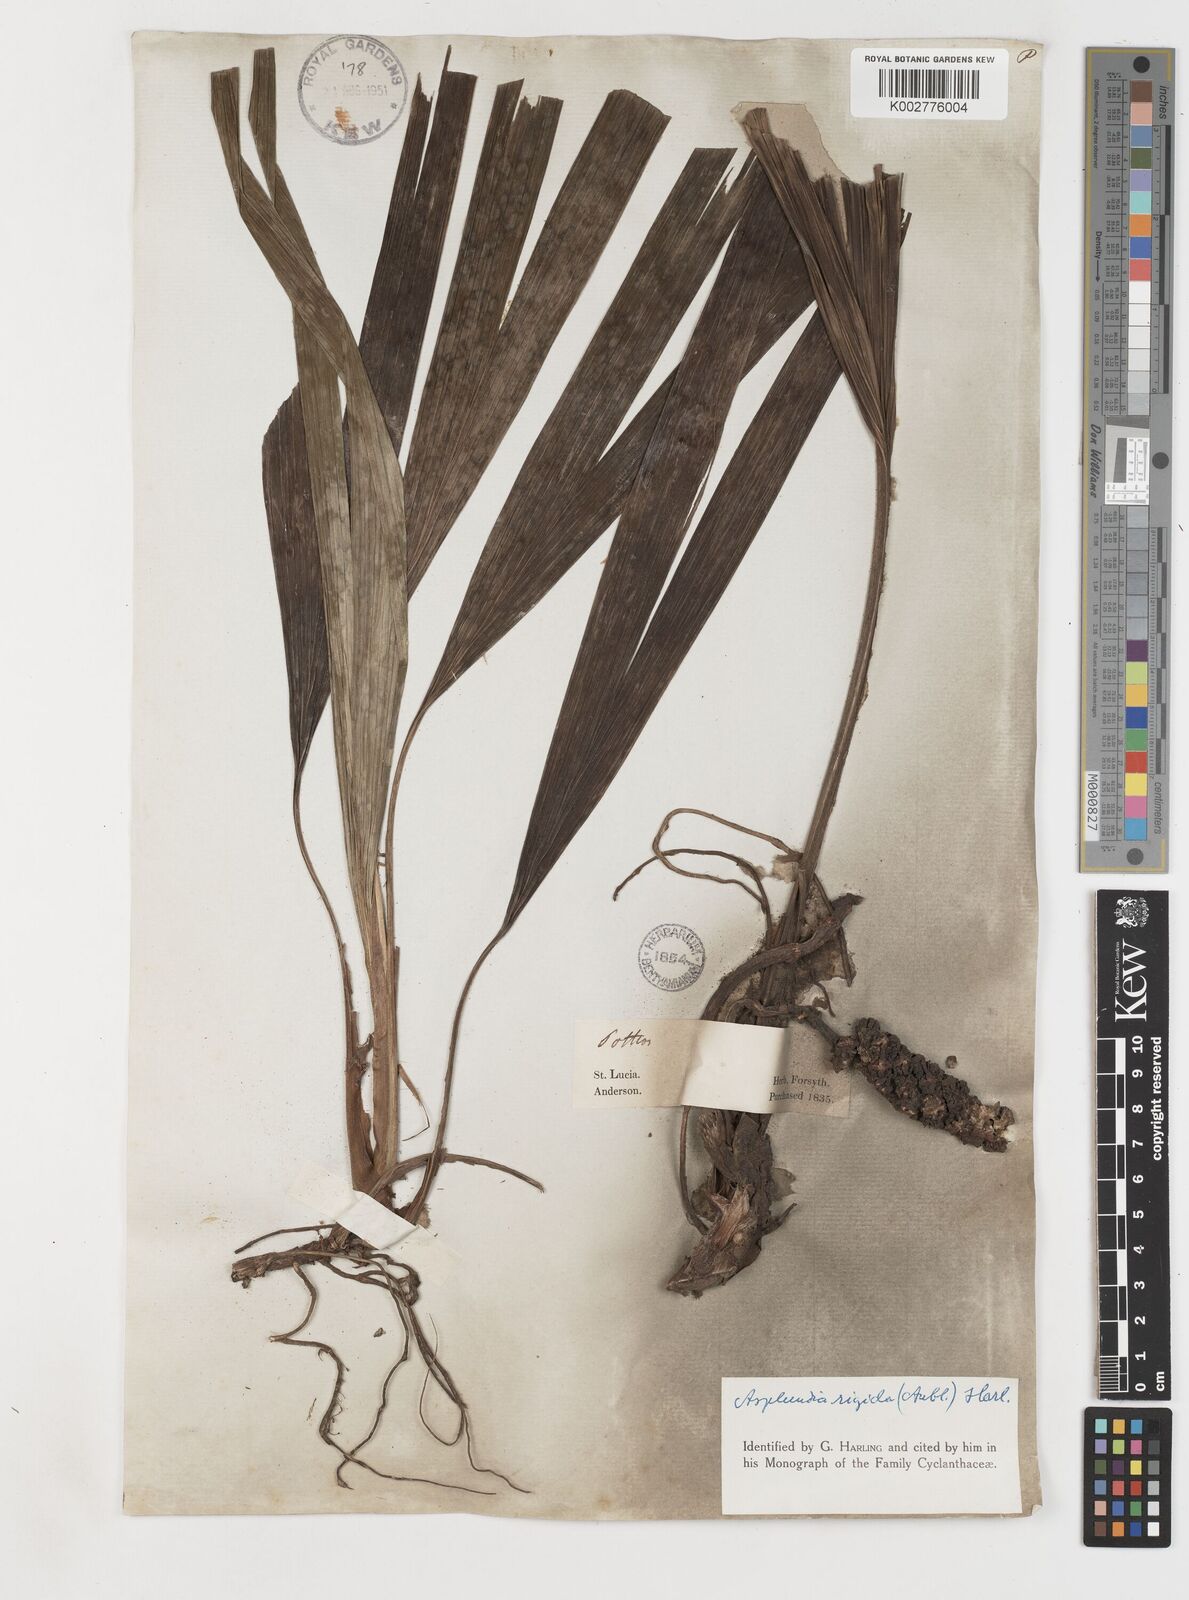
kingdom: Plantae
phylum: Tracheophyta
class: Liliopsida
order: Pandanales
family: Cyclanthaceae
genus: Asplundia
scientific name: Asplundia rigida
